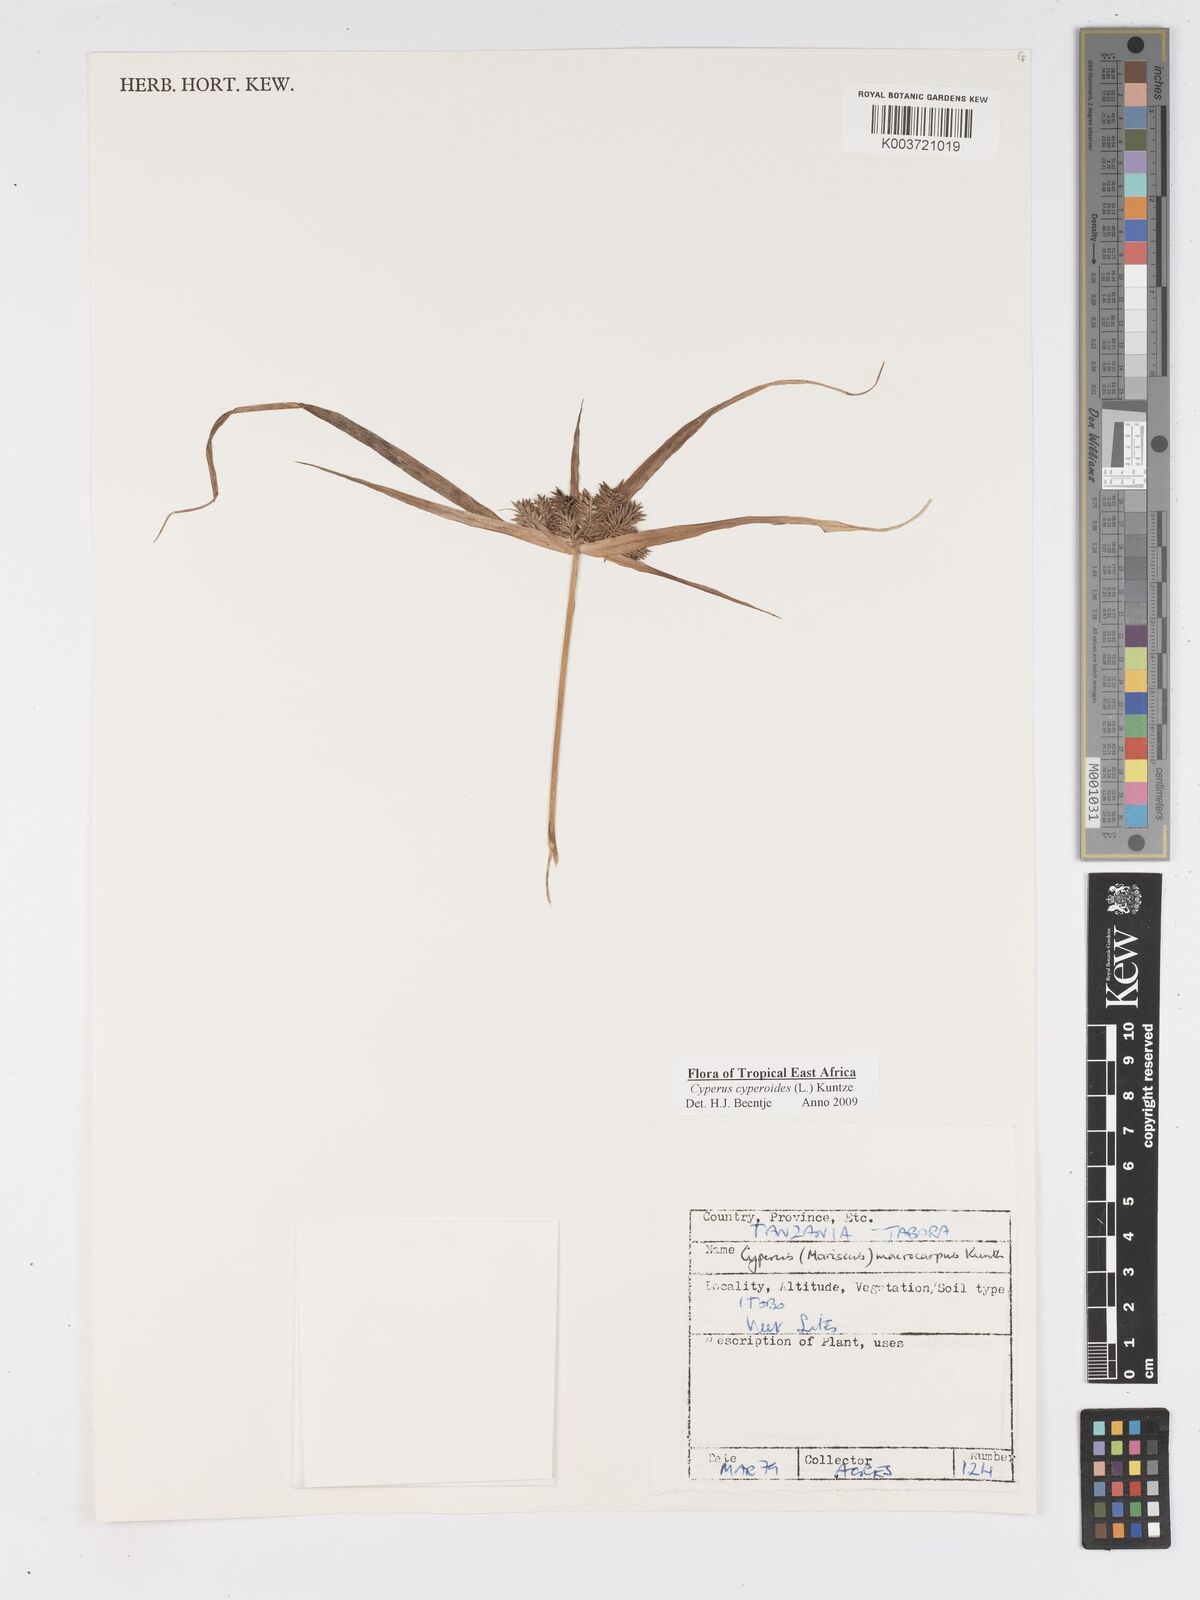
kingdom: Plantae
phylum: Tracheophyta
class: Liliopsida
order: Poales
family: Cyperaceae
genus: Cyperus
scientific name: Cyperus cyperoides
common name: Pacific island flat sedge
